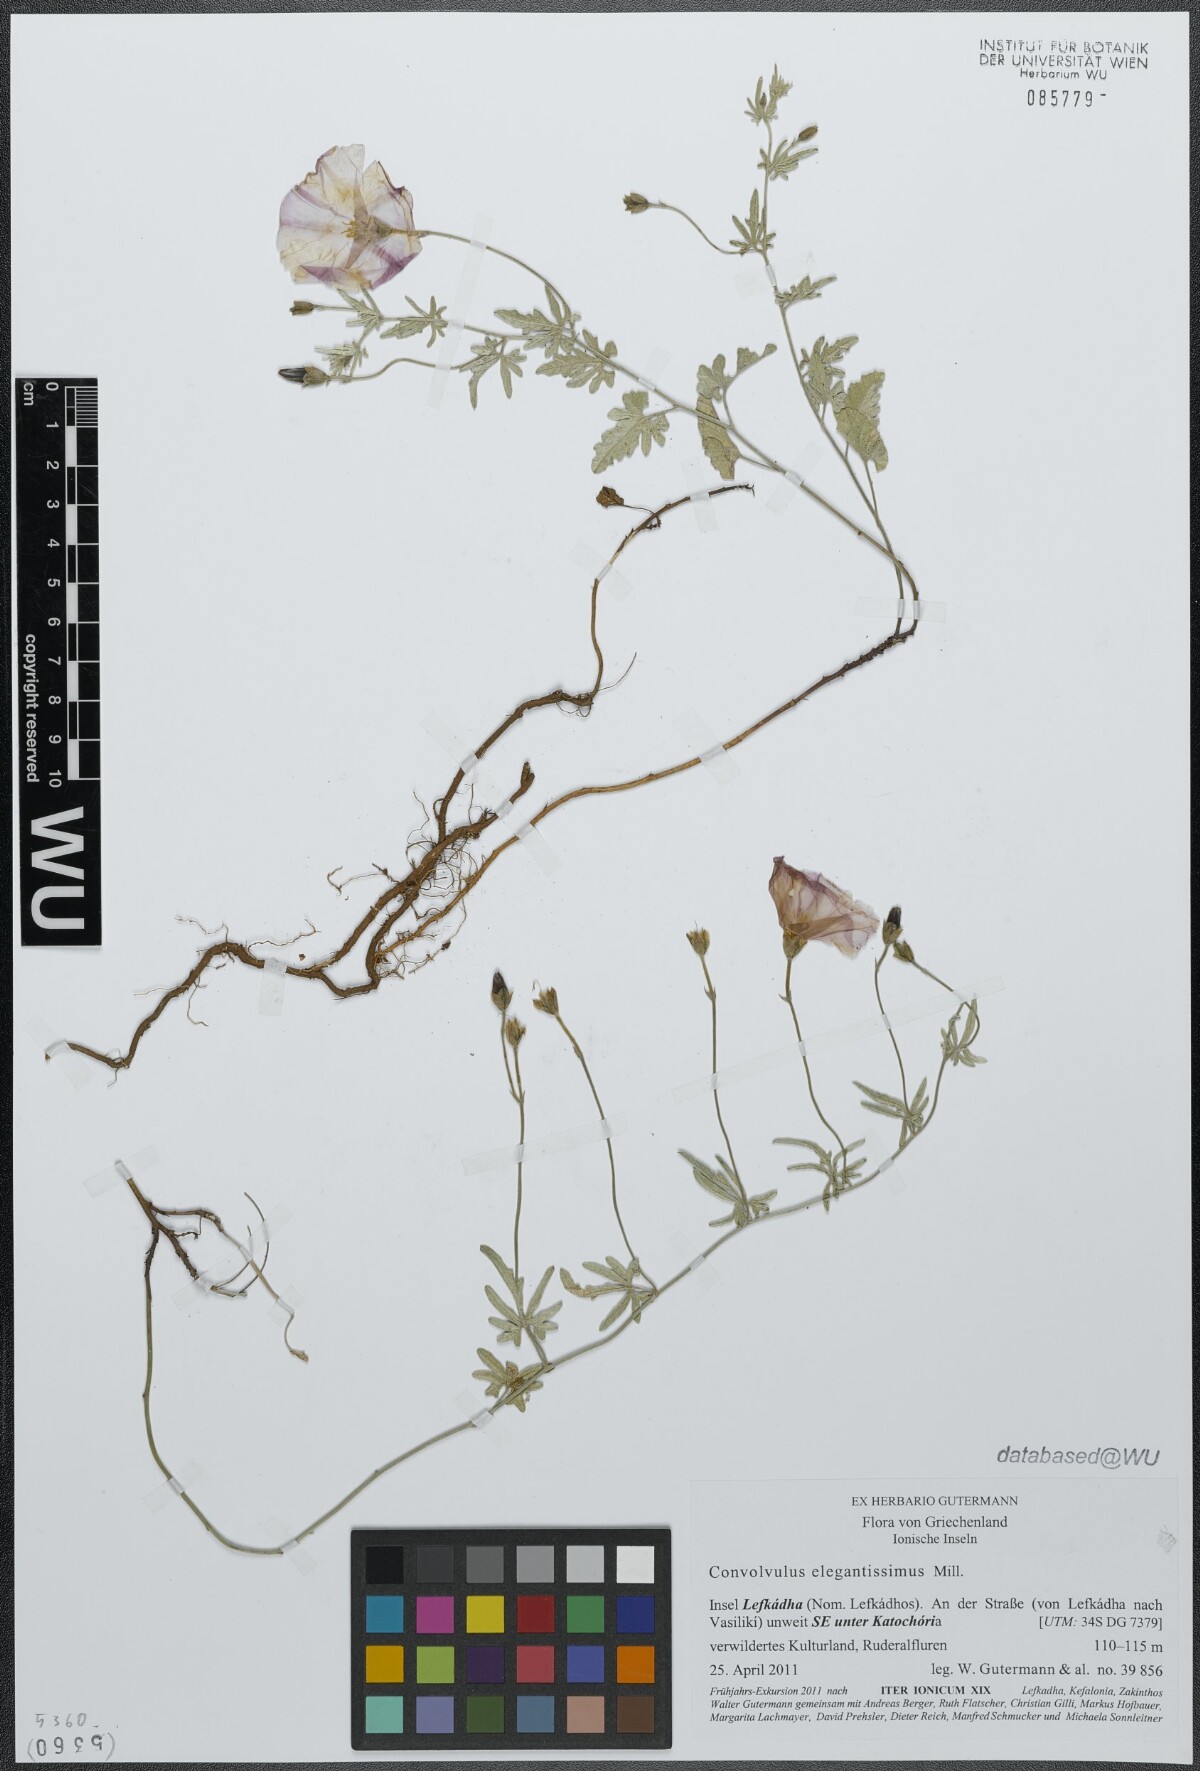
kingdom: Plantae
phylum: Tracheophyta
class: Magnoliopsida
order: Solanales
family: Convolvulaceae
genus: Convolvulus
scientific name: Convolvulus elegantissimus
